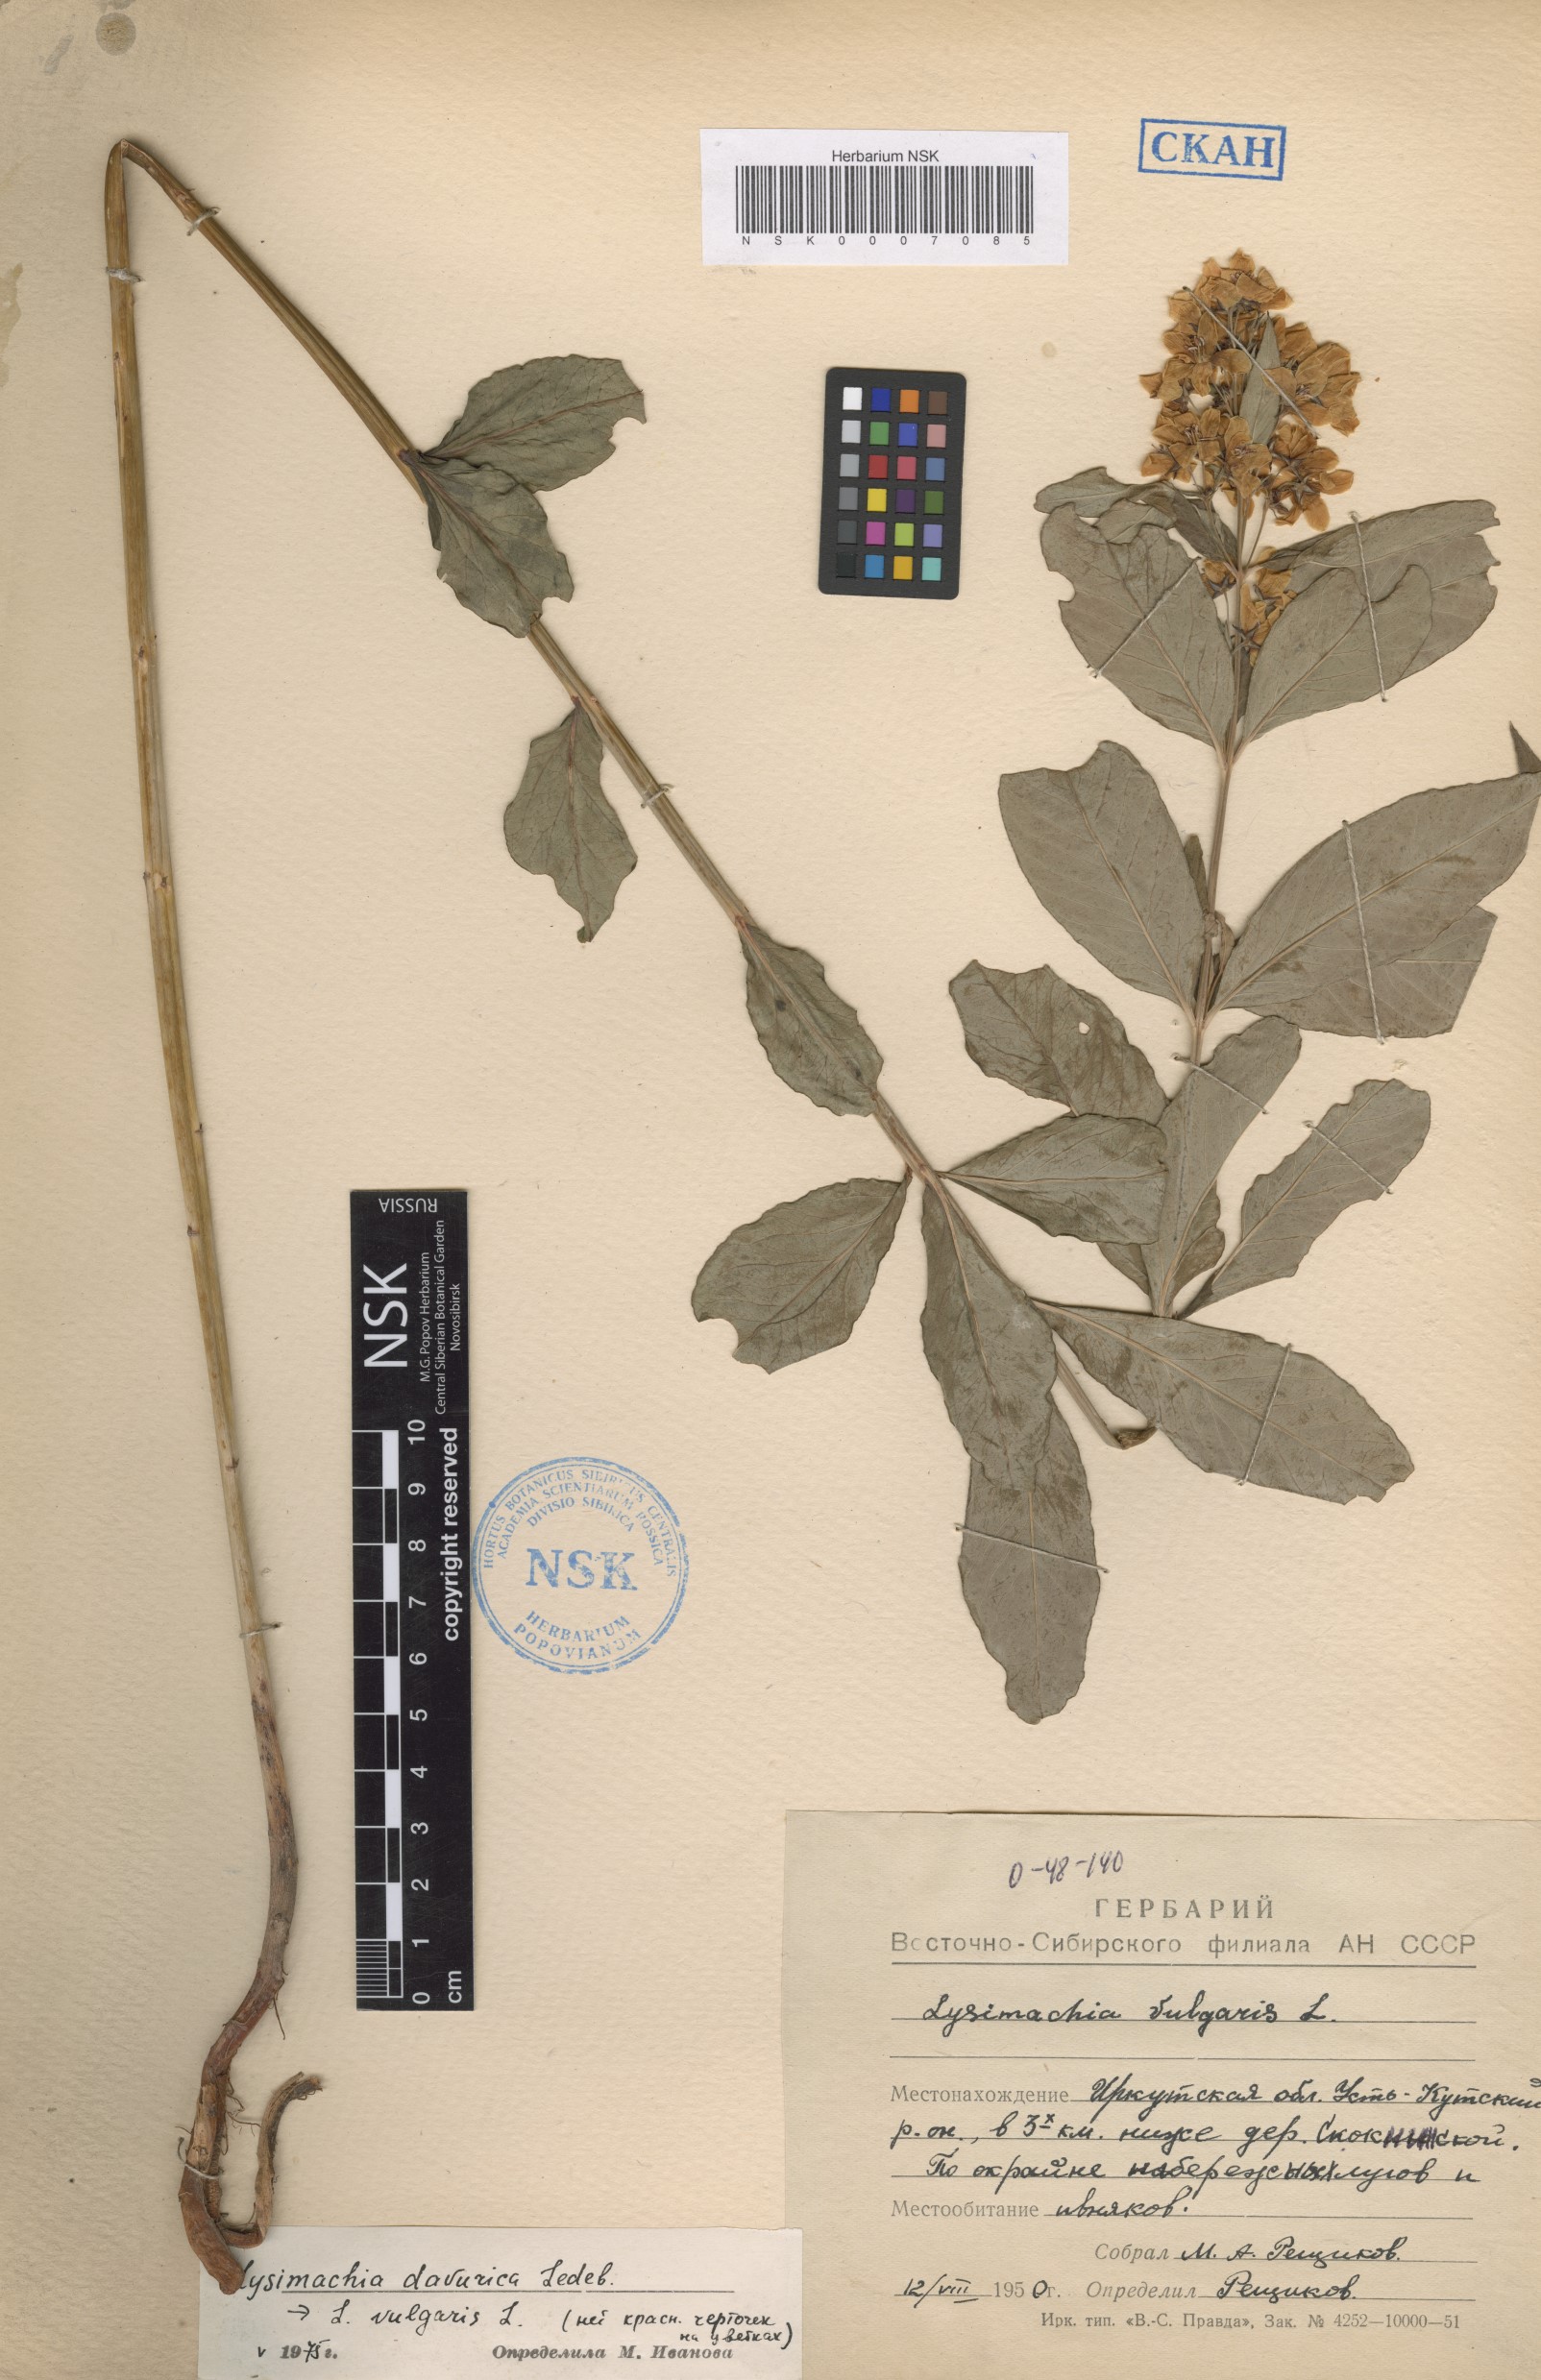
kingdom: Plantae
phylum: Tracheophyta
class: Magnoliopsida
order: Ericales
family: Primulaceae
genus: Lysimachia
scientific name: Lysimachia davurica
